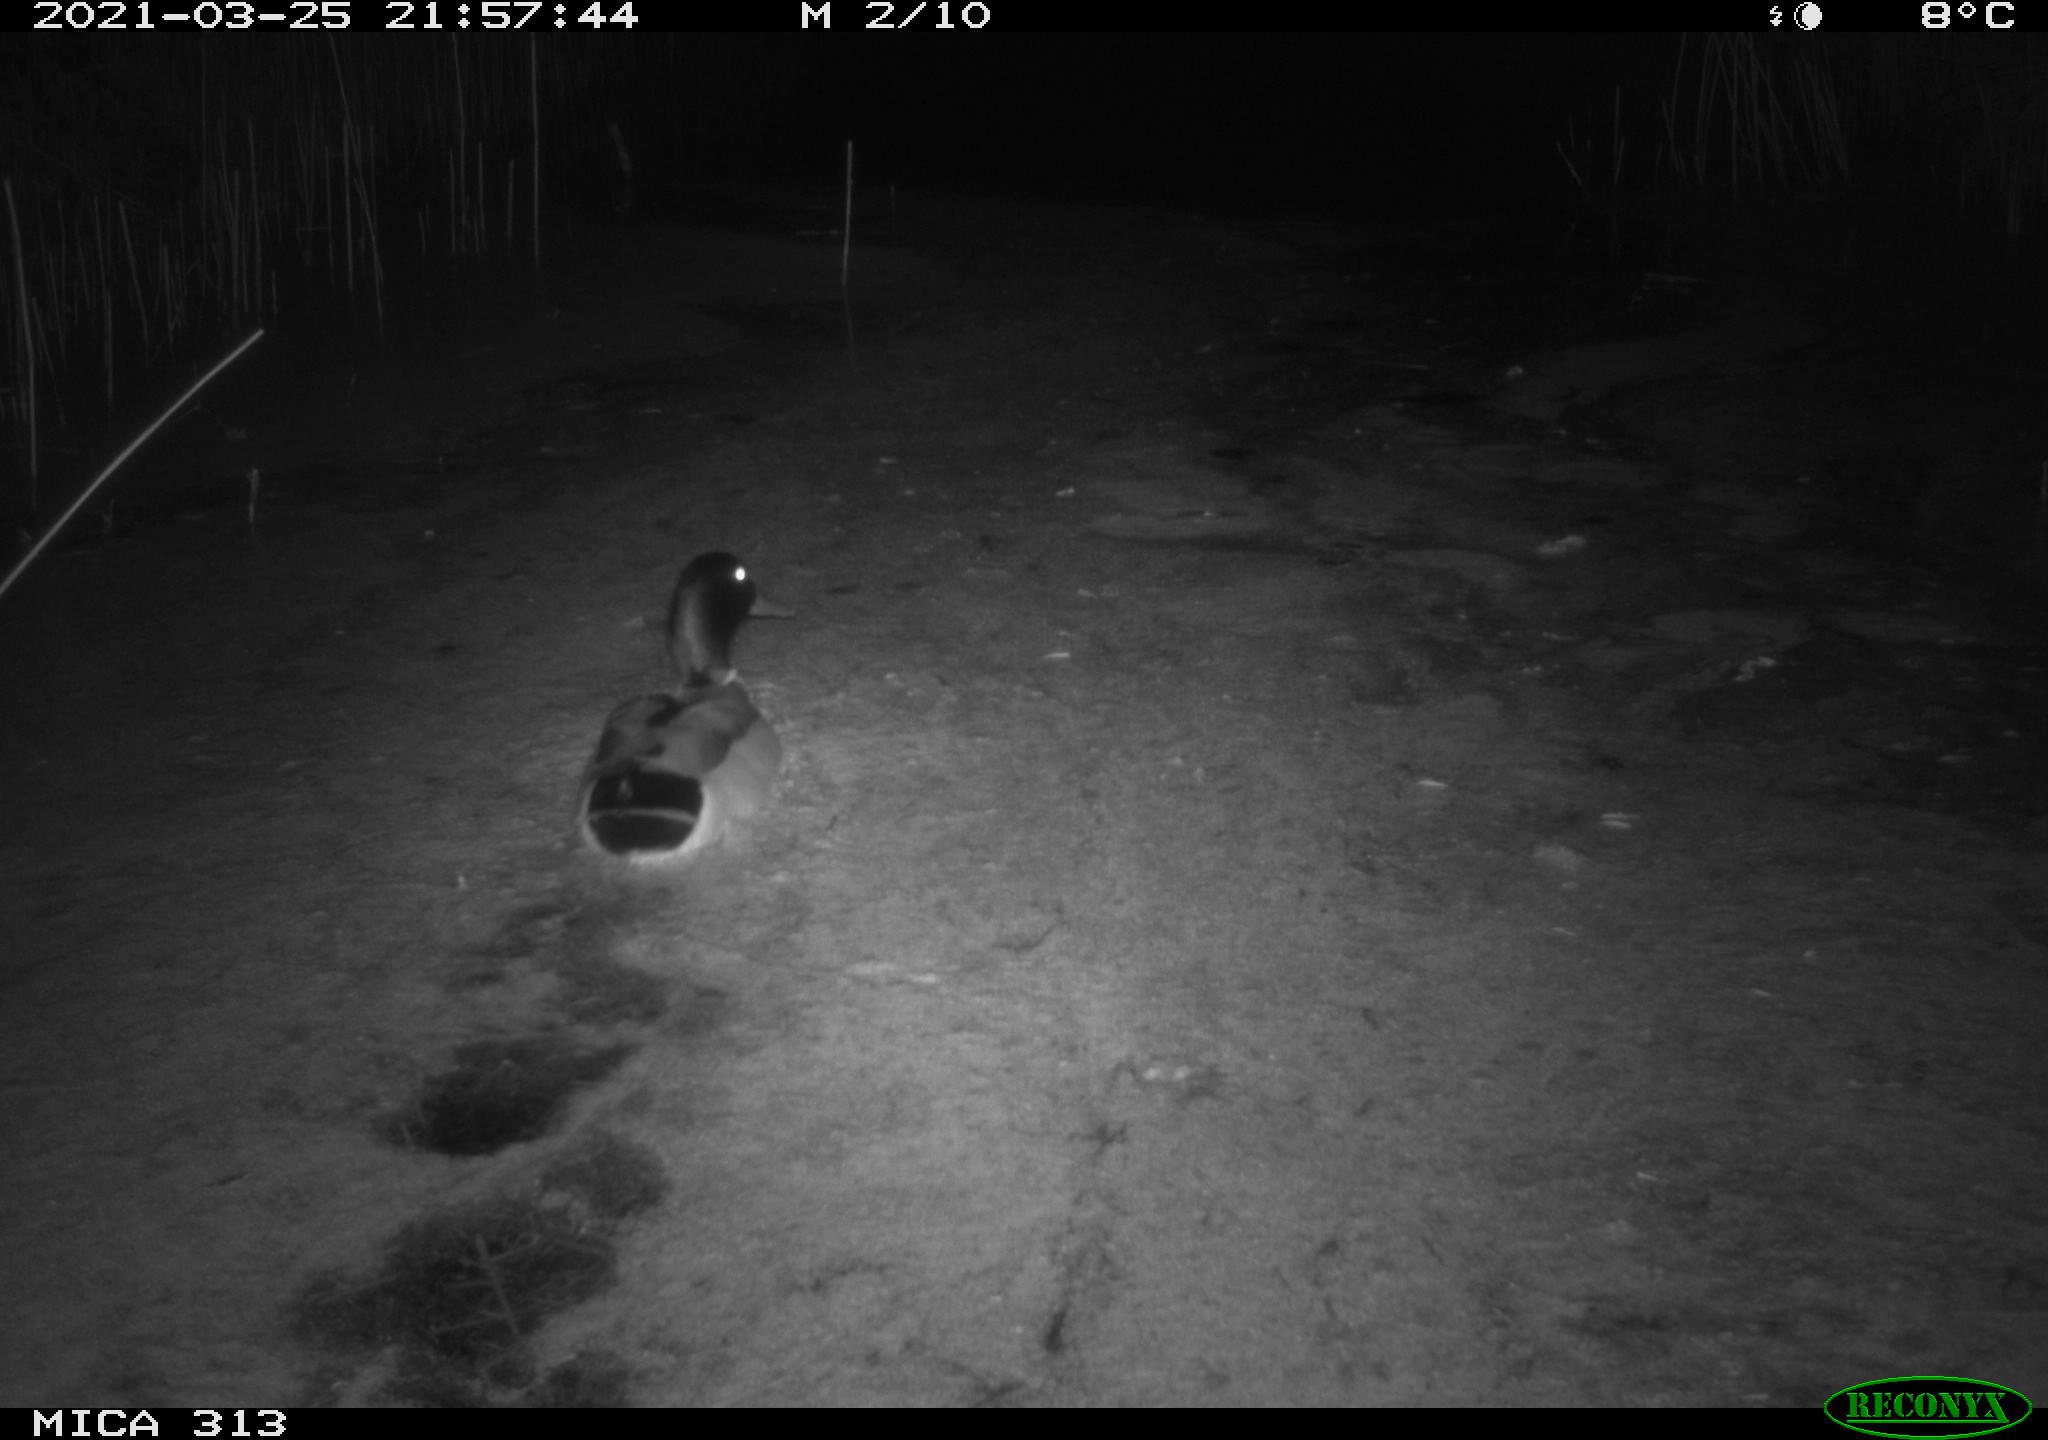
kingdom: Animalia
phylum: Chordata
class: Aves
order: Anseriformes
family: Anatidae
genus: Anas
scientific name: Anas platyrhynchos
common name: Mallard
